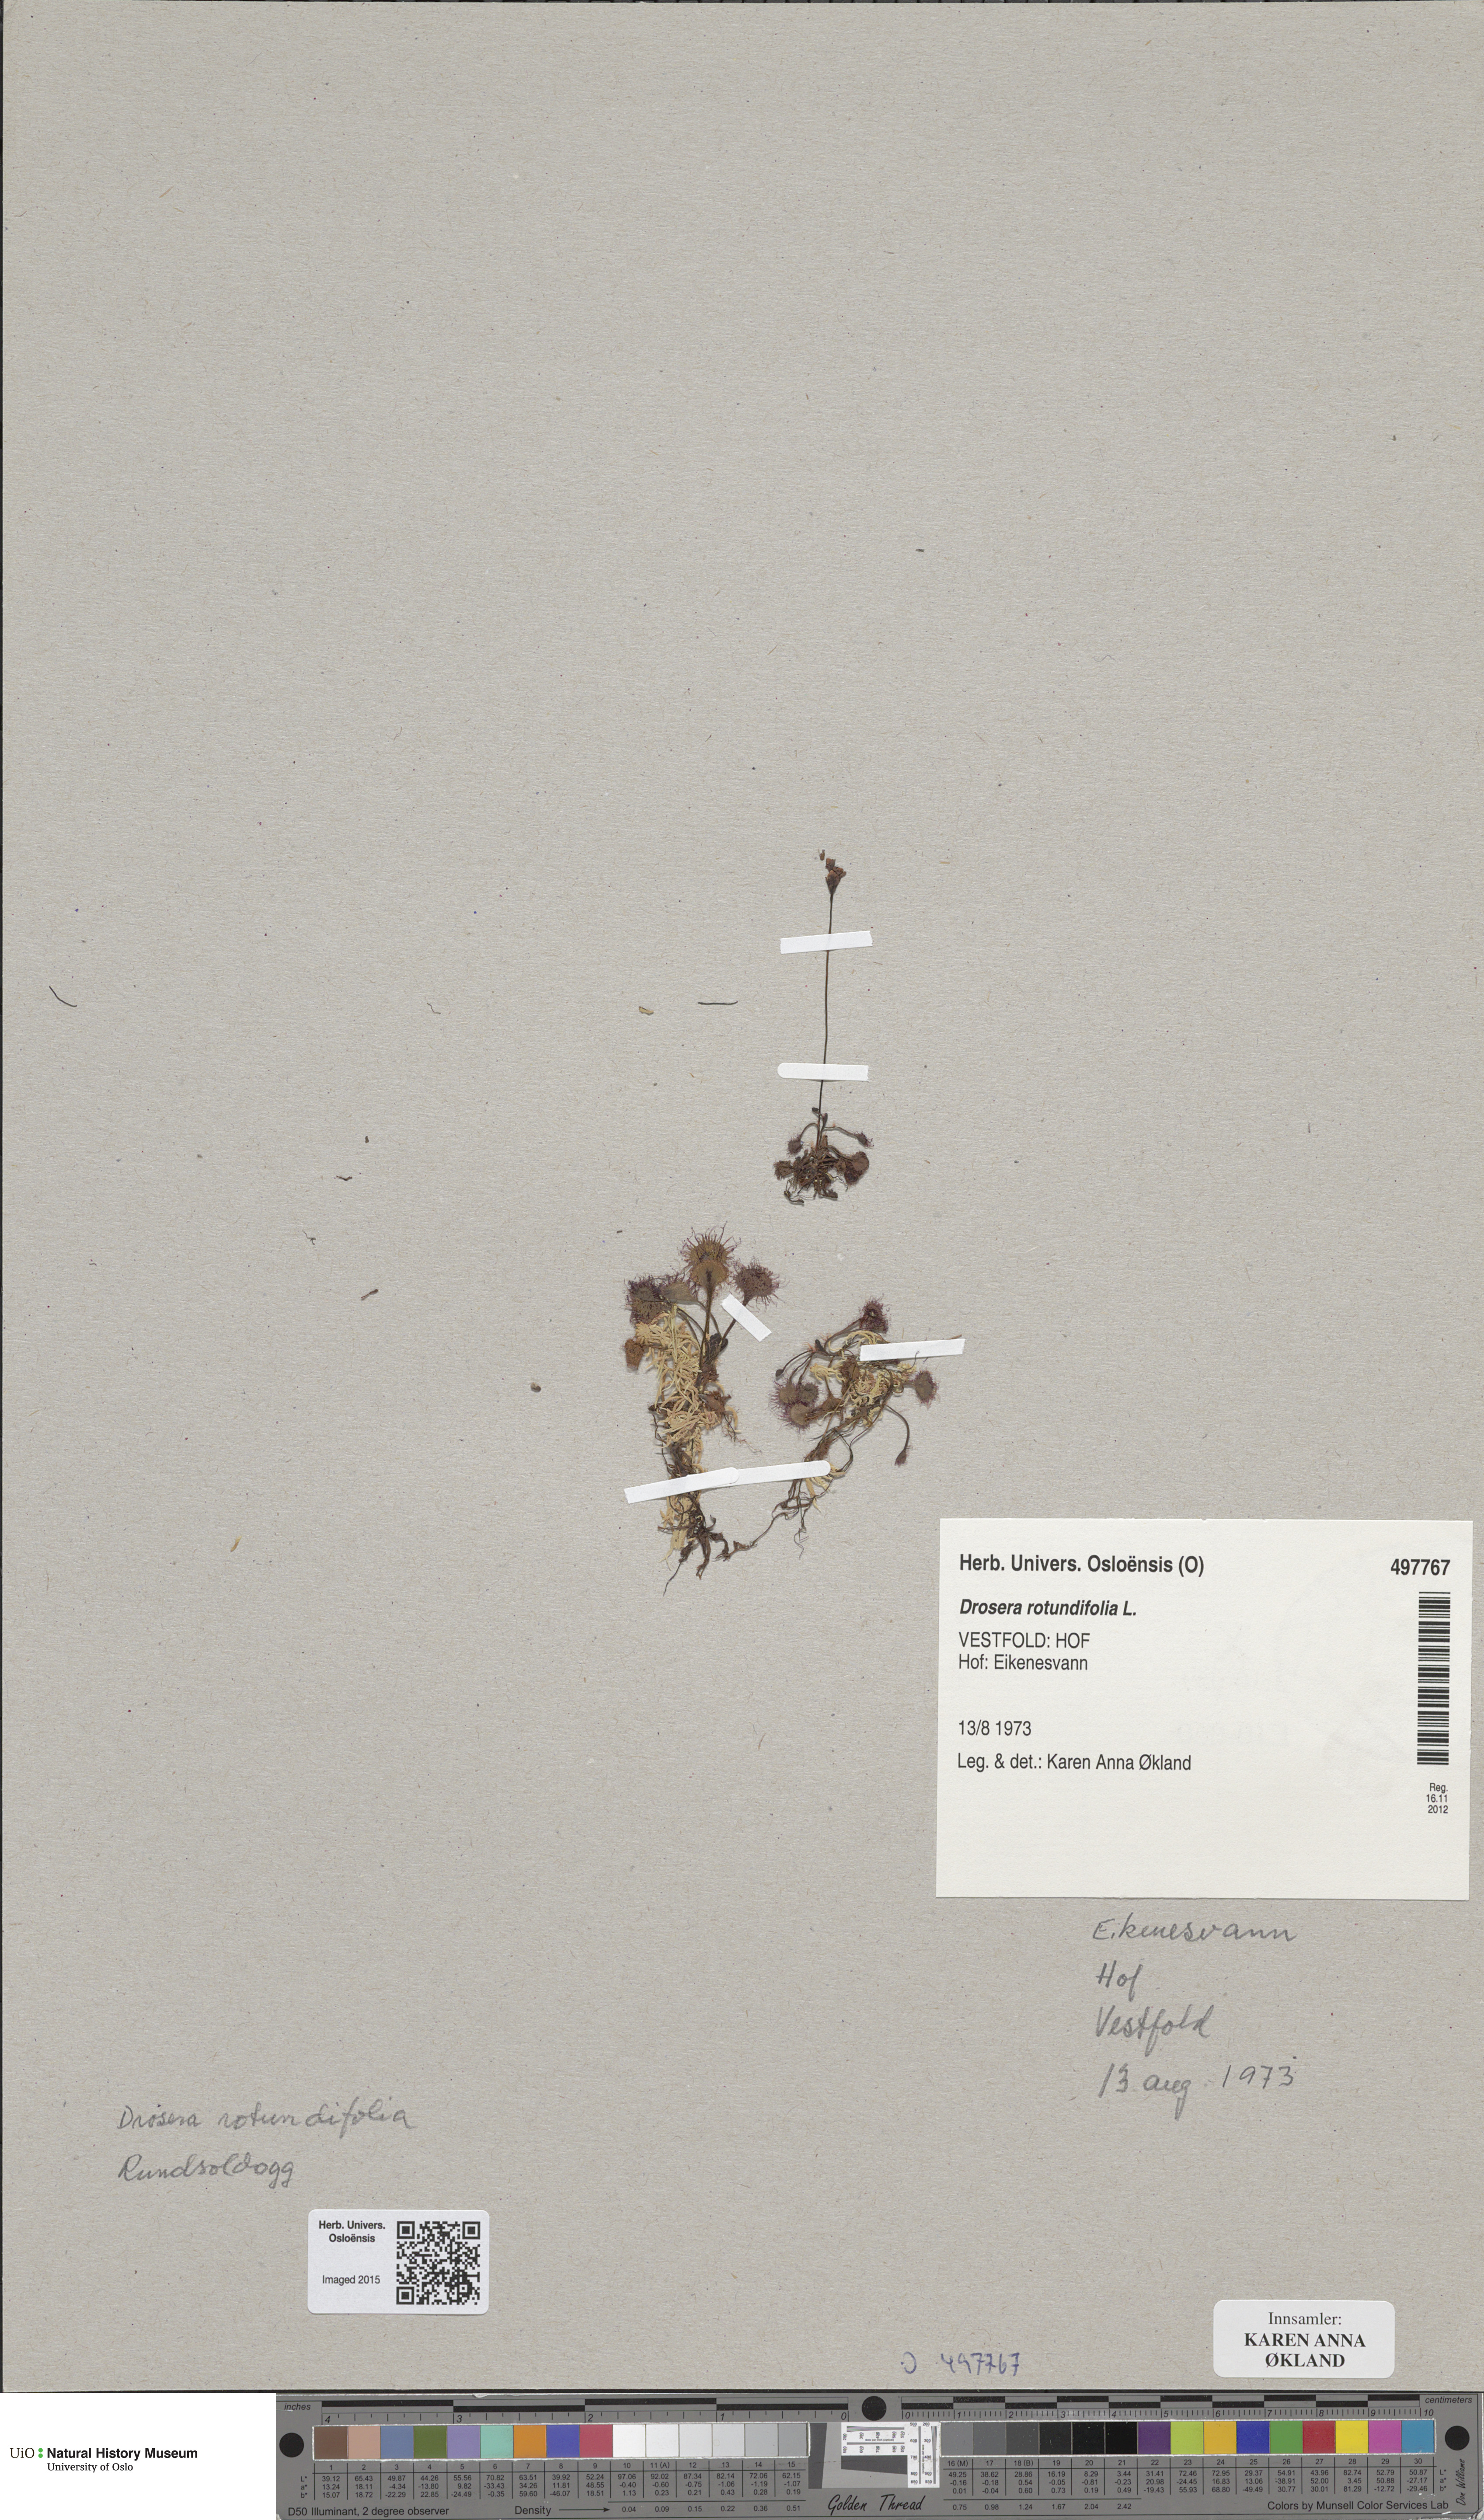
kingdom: Plantae
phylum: Tracheophyta
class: Magnoliopsida
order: Caryophyllales
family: Droseraceae
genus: Drosera
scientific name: Drosera rotundifolia
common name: Round-leaved sundew
